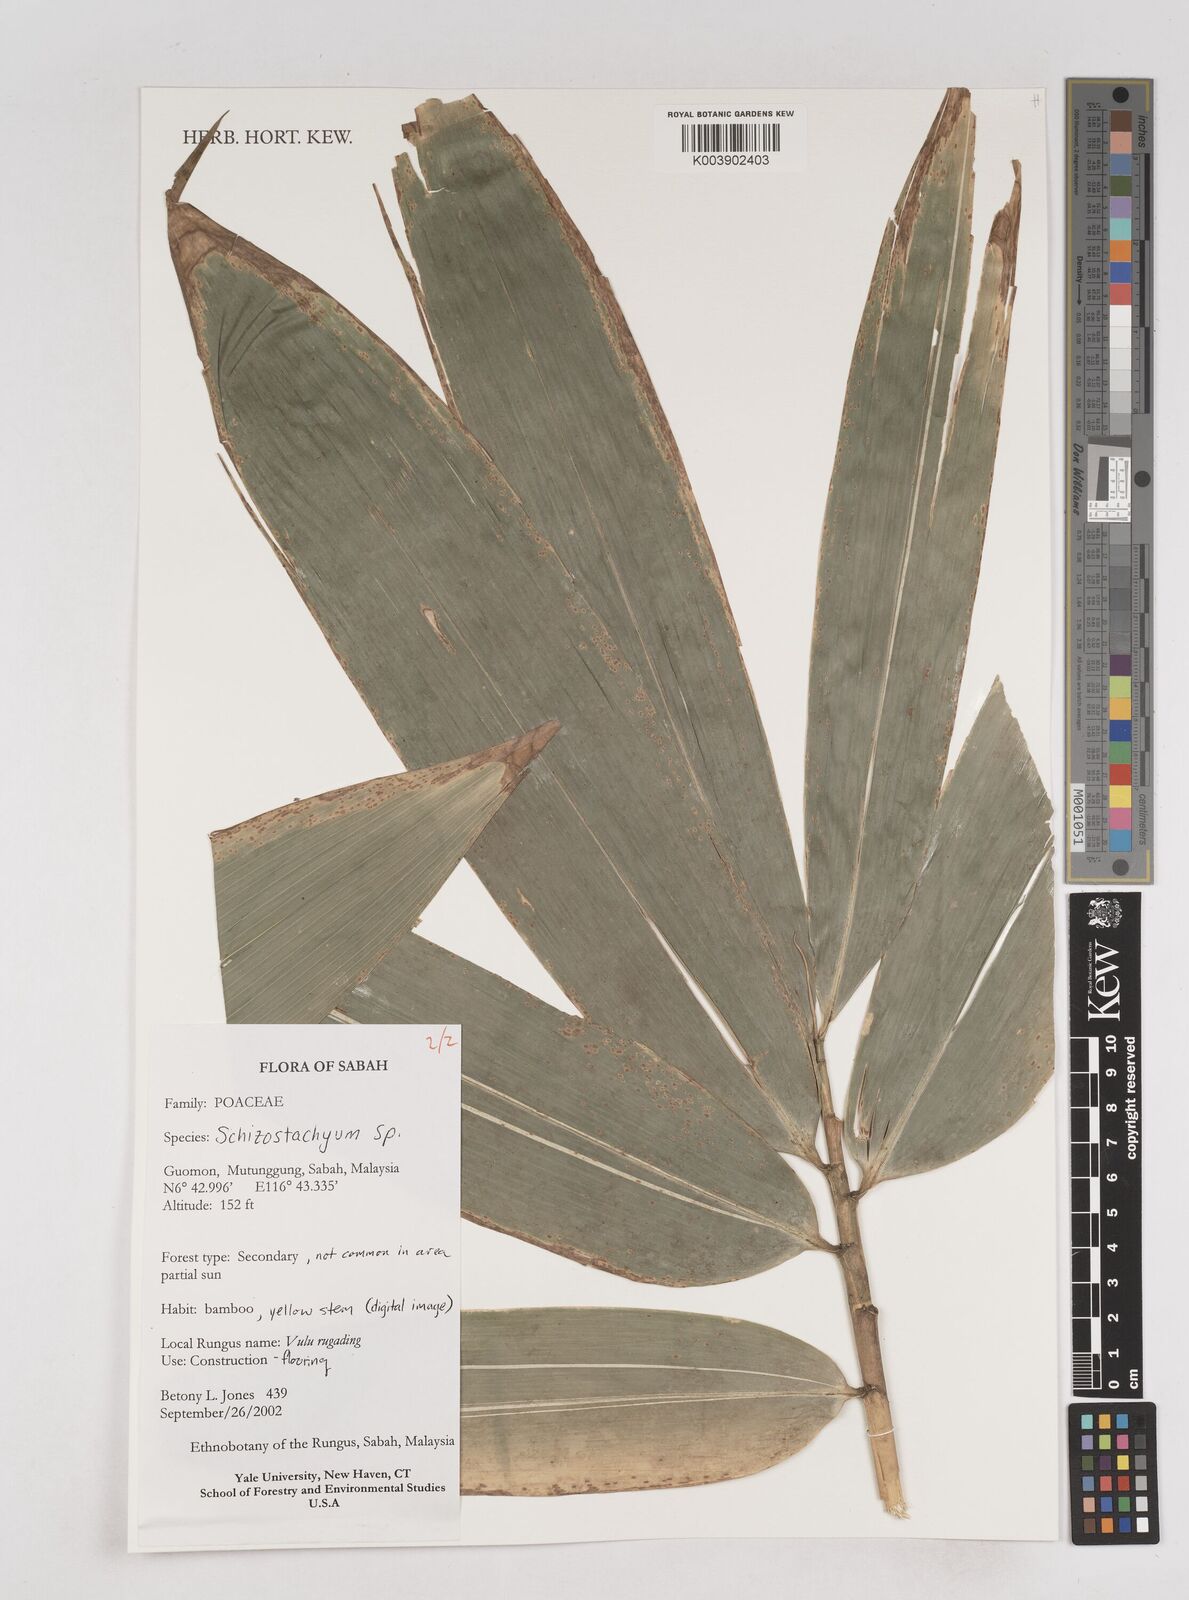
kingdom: Plantae
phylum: Tracheophyta
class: Liliopsida
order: Poales
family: Poaceae
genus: Schizostachyum
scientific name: Schizostachyum
